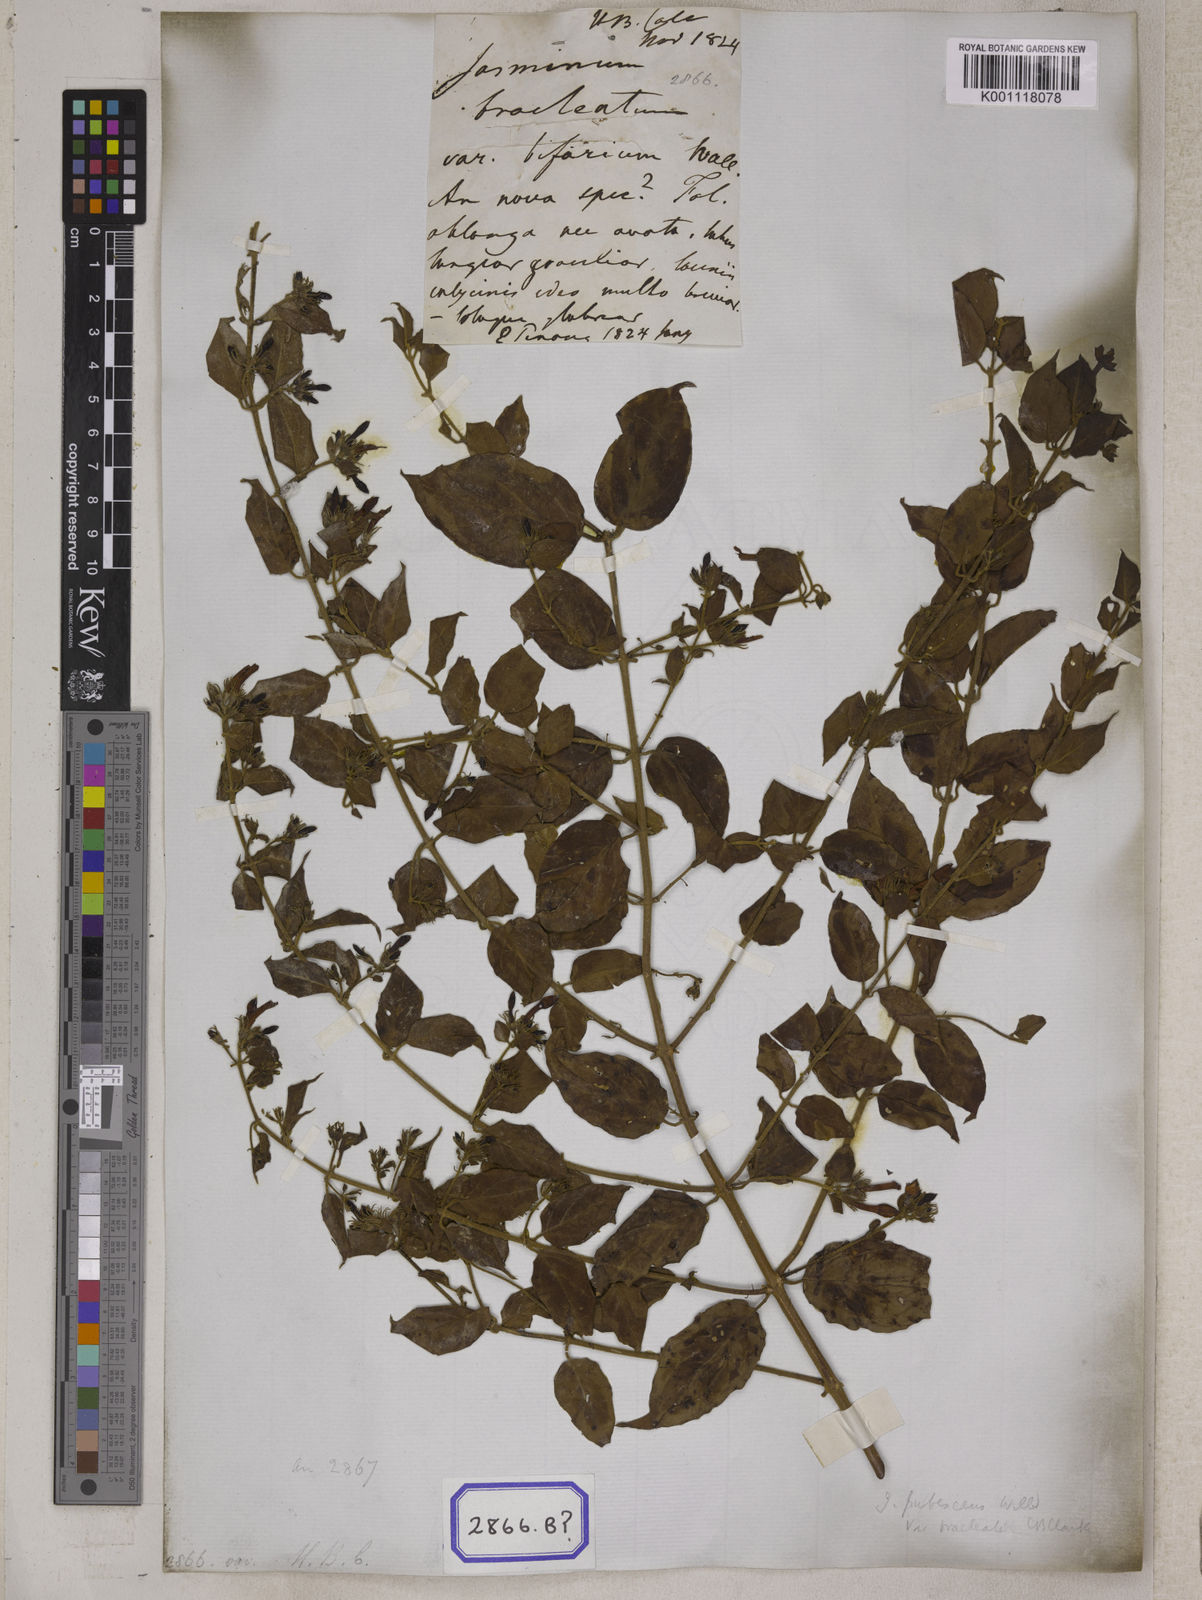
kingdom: Plantae
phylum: Tracheophyta
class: Magnoliopsida
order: Lamiales
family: Oleaceae
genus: Jasminum
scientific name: Jasminum
